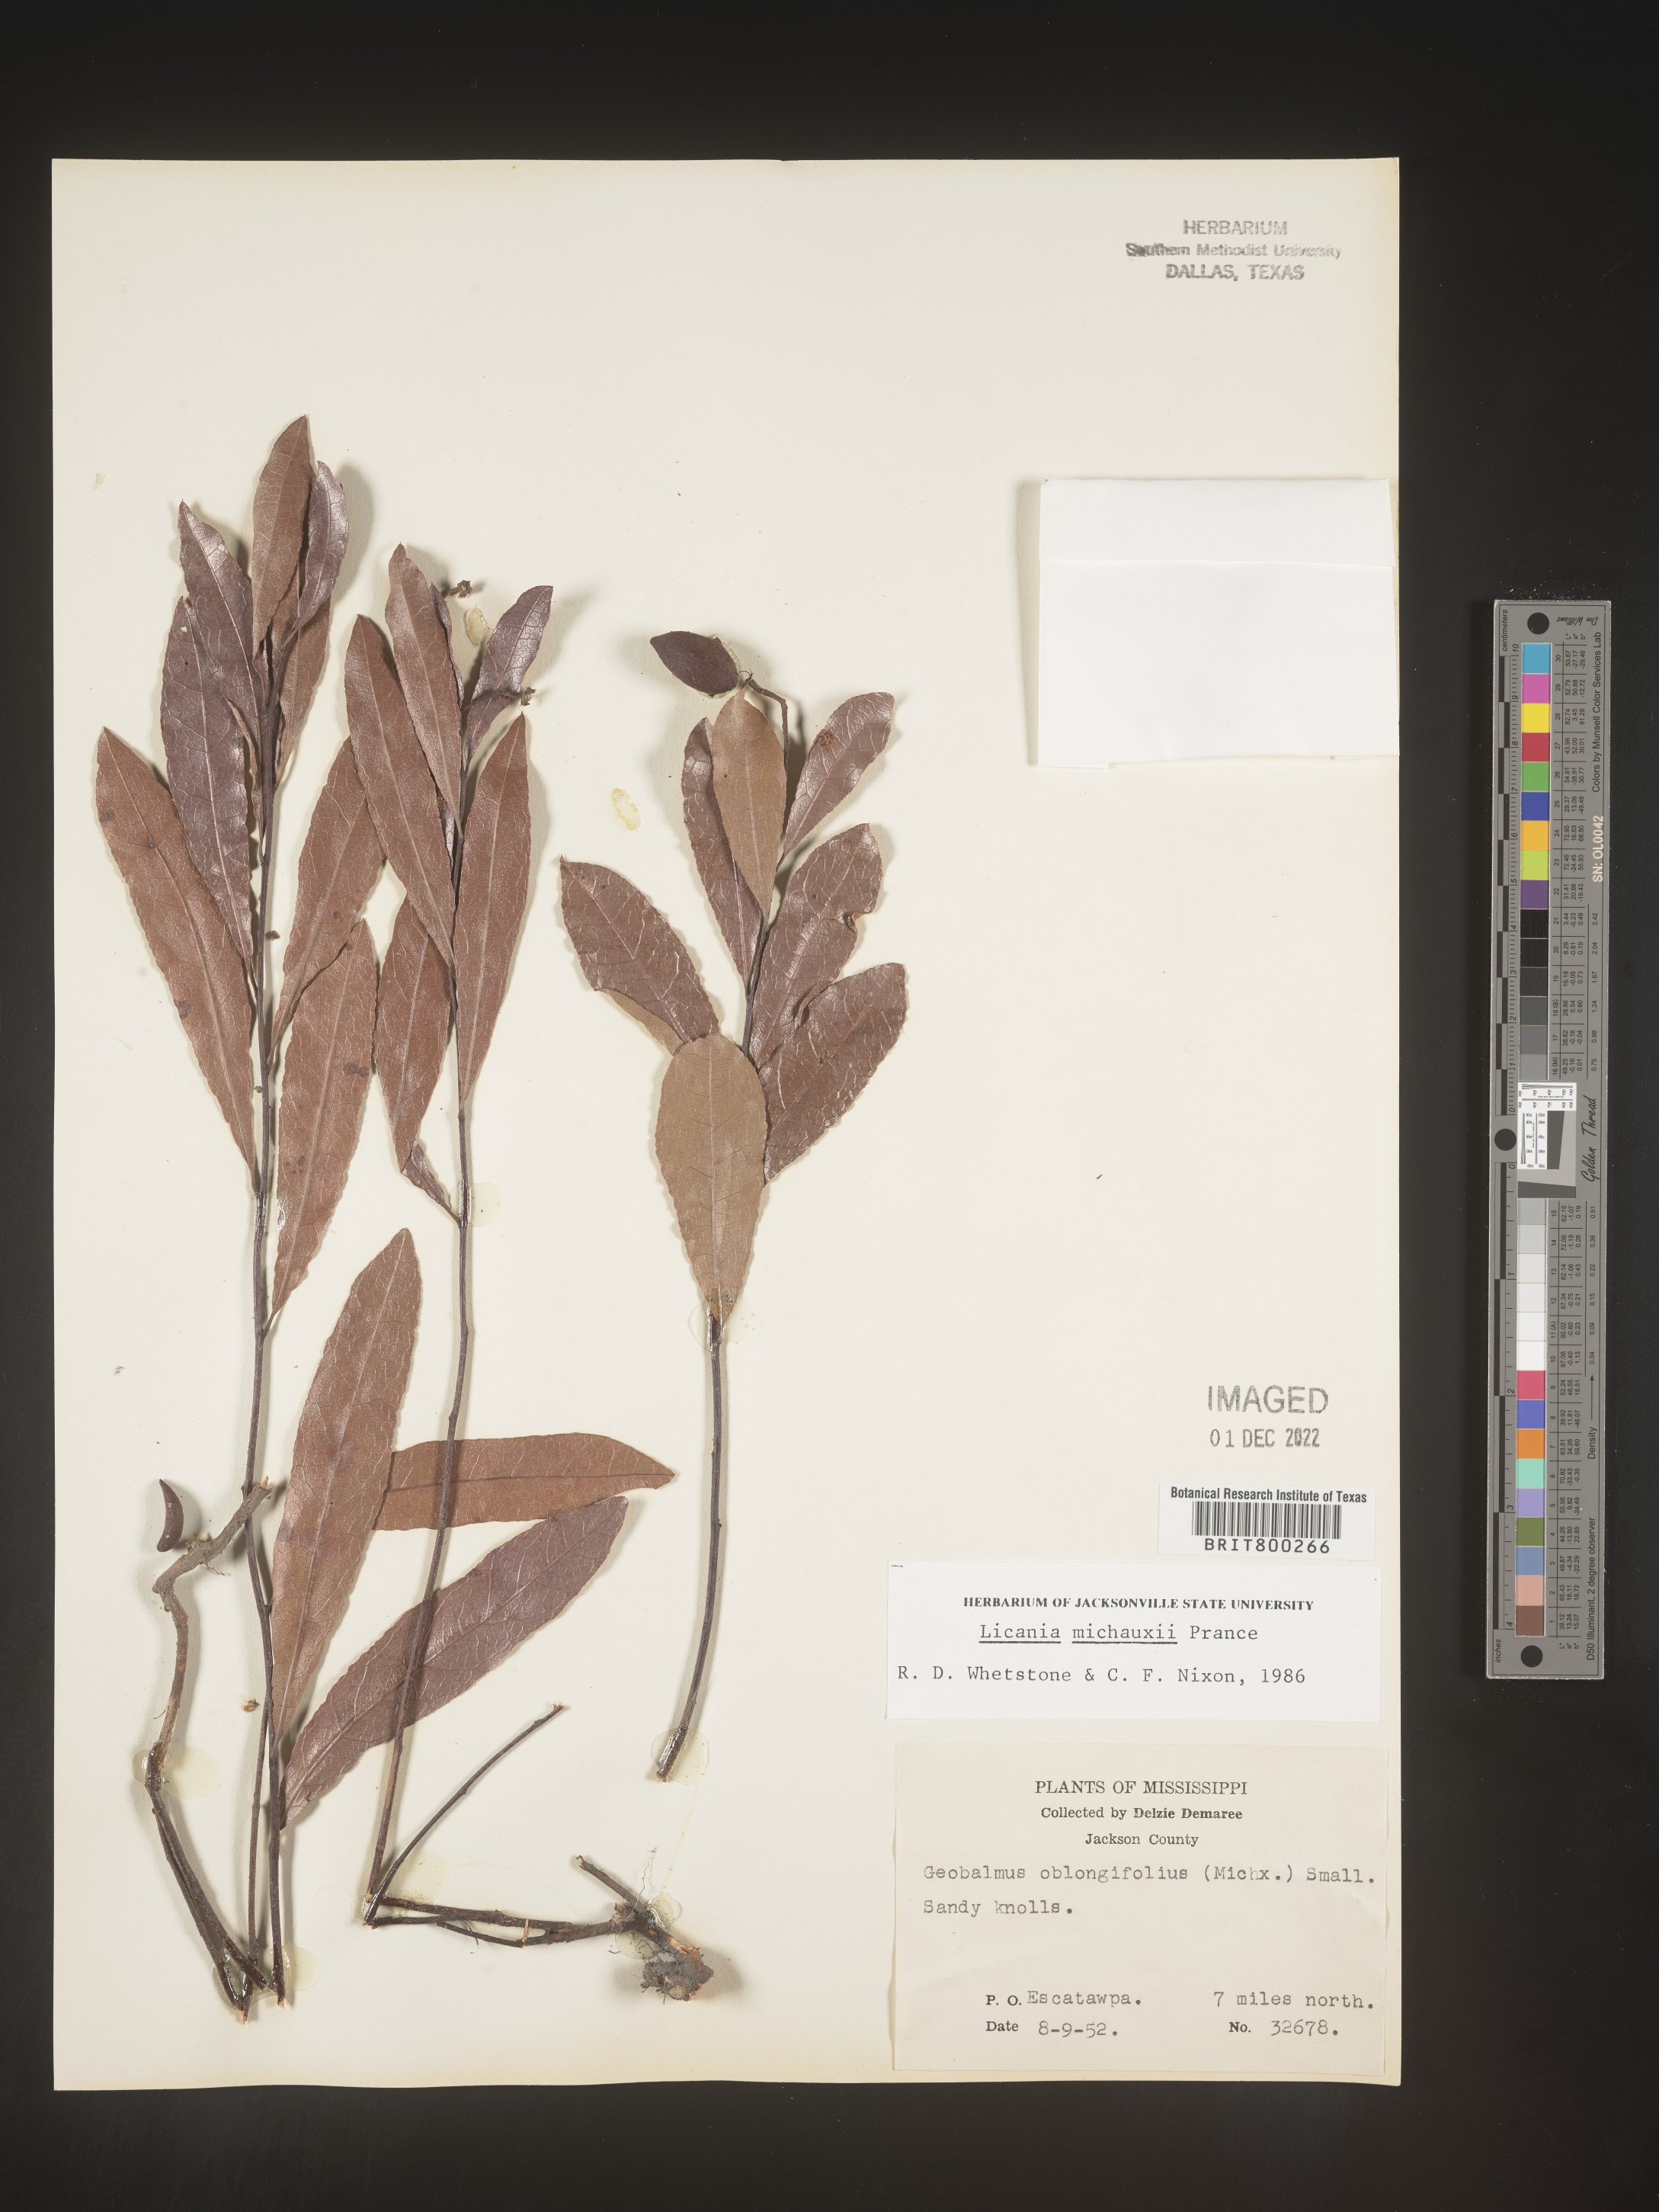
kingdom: Plantae
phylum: Tracheophyta
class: Magnoliopsida
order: Malpighiales
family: Chrysobalanaceae
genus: Geobalanus
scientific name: Geobalanus oblongifolius
